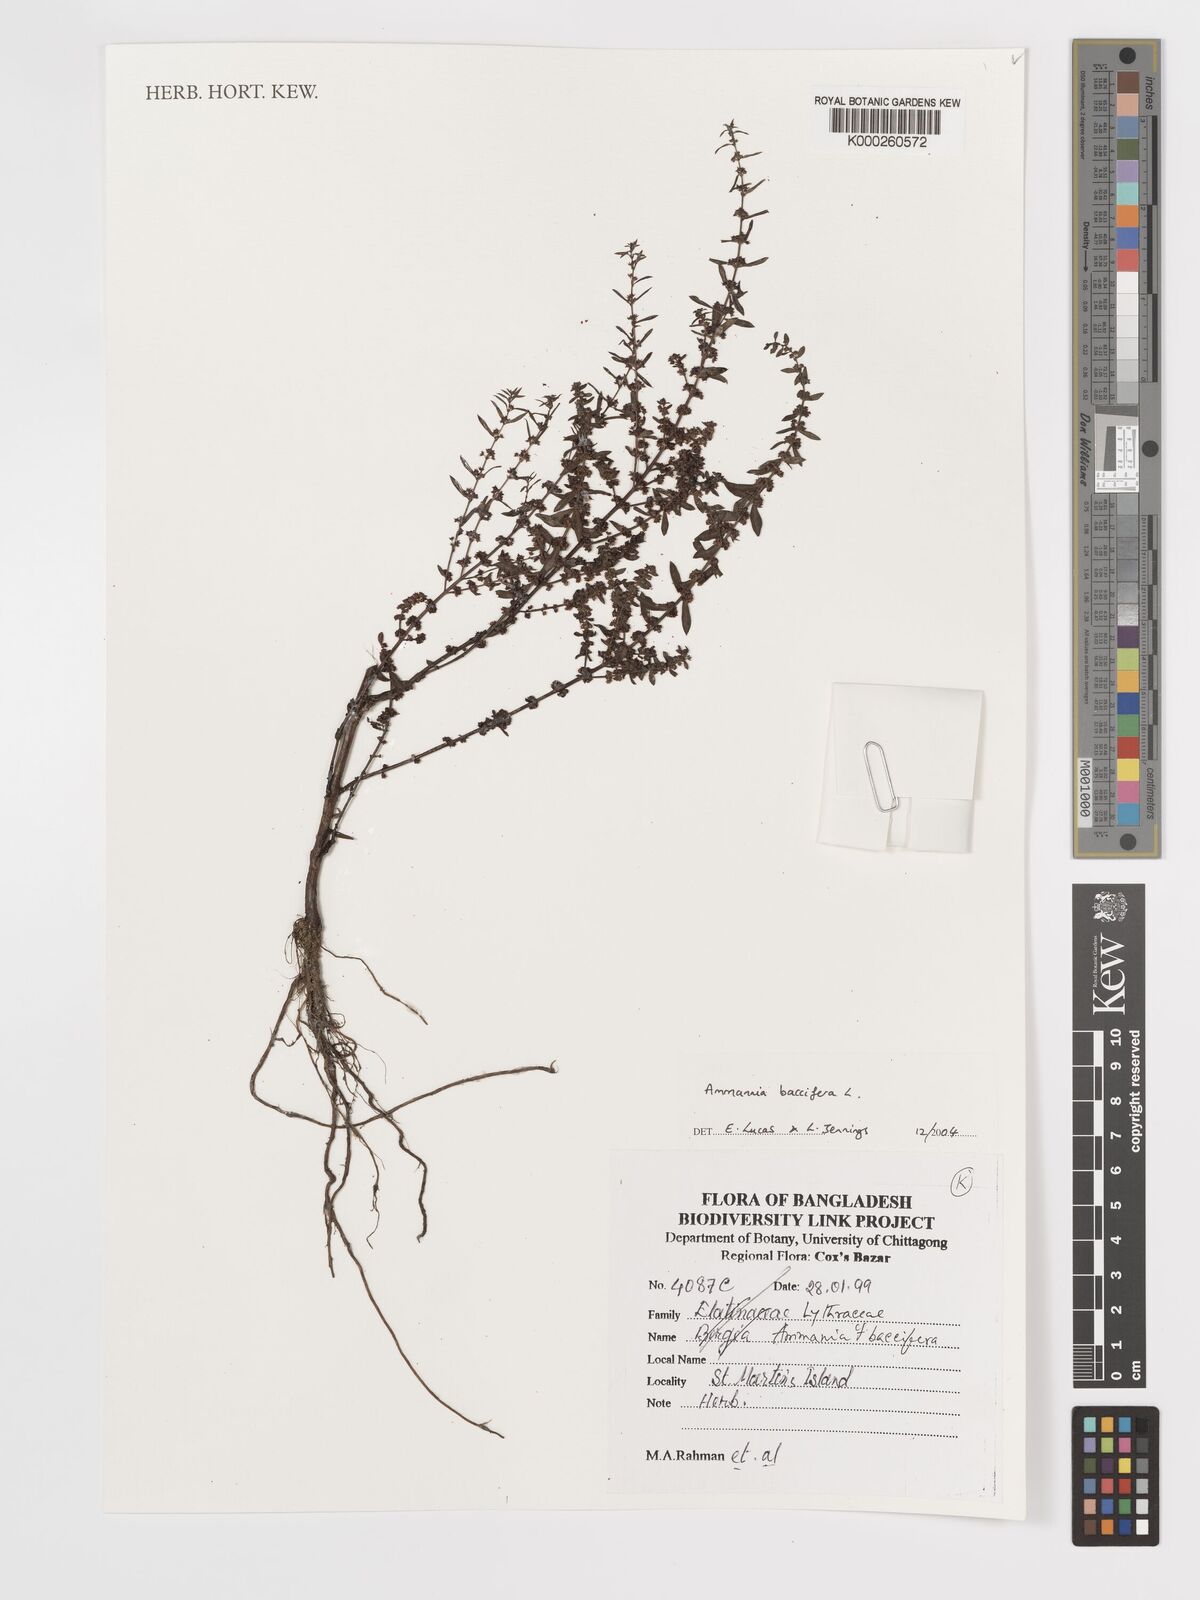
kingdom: Plantae
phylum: Tracheophyta
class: Magnoliopsida
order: Myrtales
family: Lythraceae
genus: Ammannia
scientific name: Ammannia baccifera
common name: Blistering ammania
